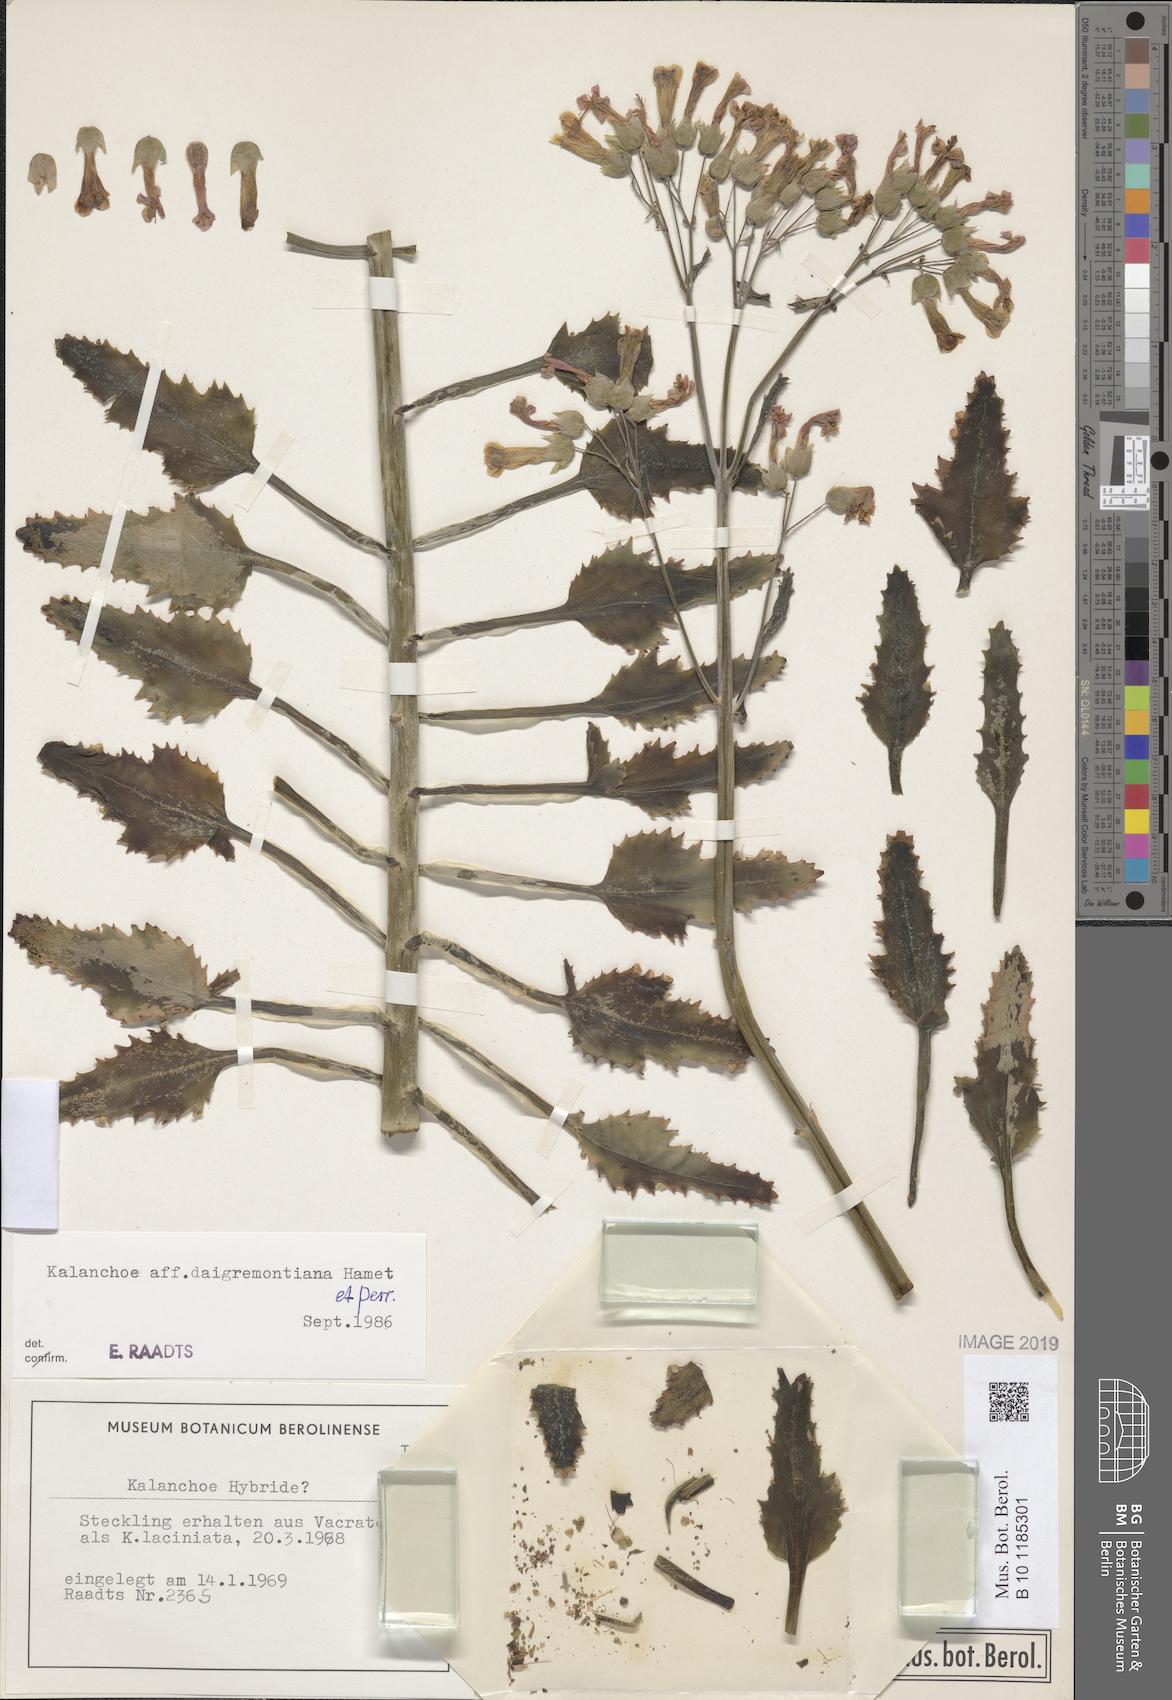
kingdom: Plantae
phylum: Tracheophyta
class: Magnoliopsida
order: Saxifragales
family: Crassulaceae
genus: Kalanchoe
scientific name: Kalanchoe houghtonii
